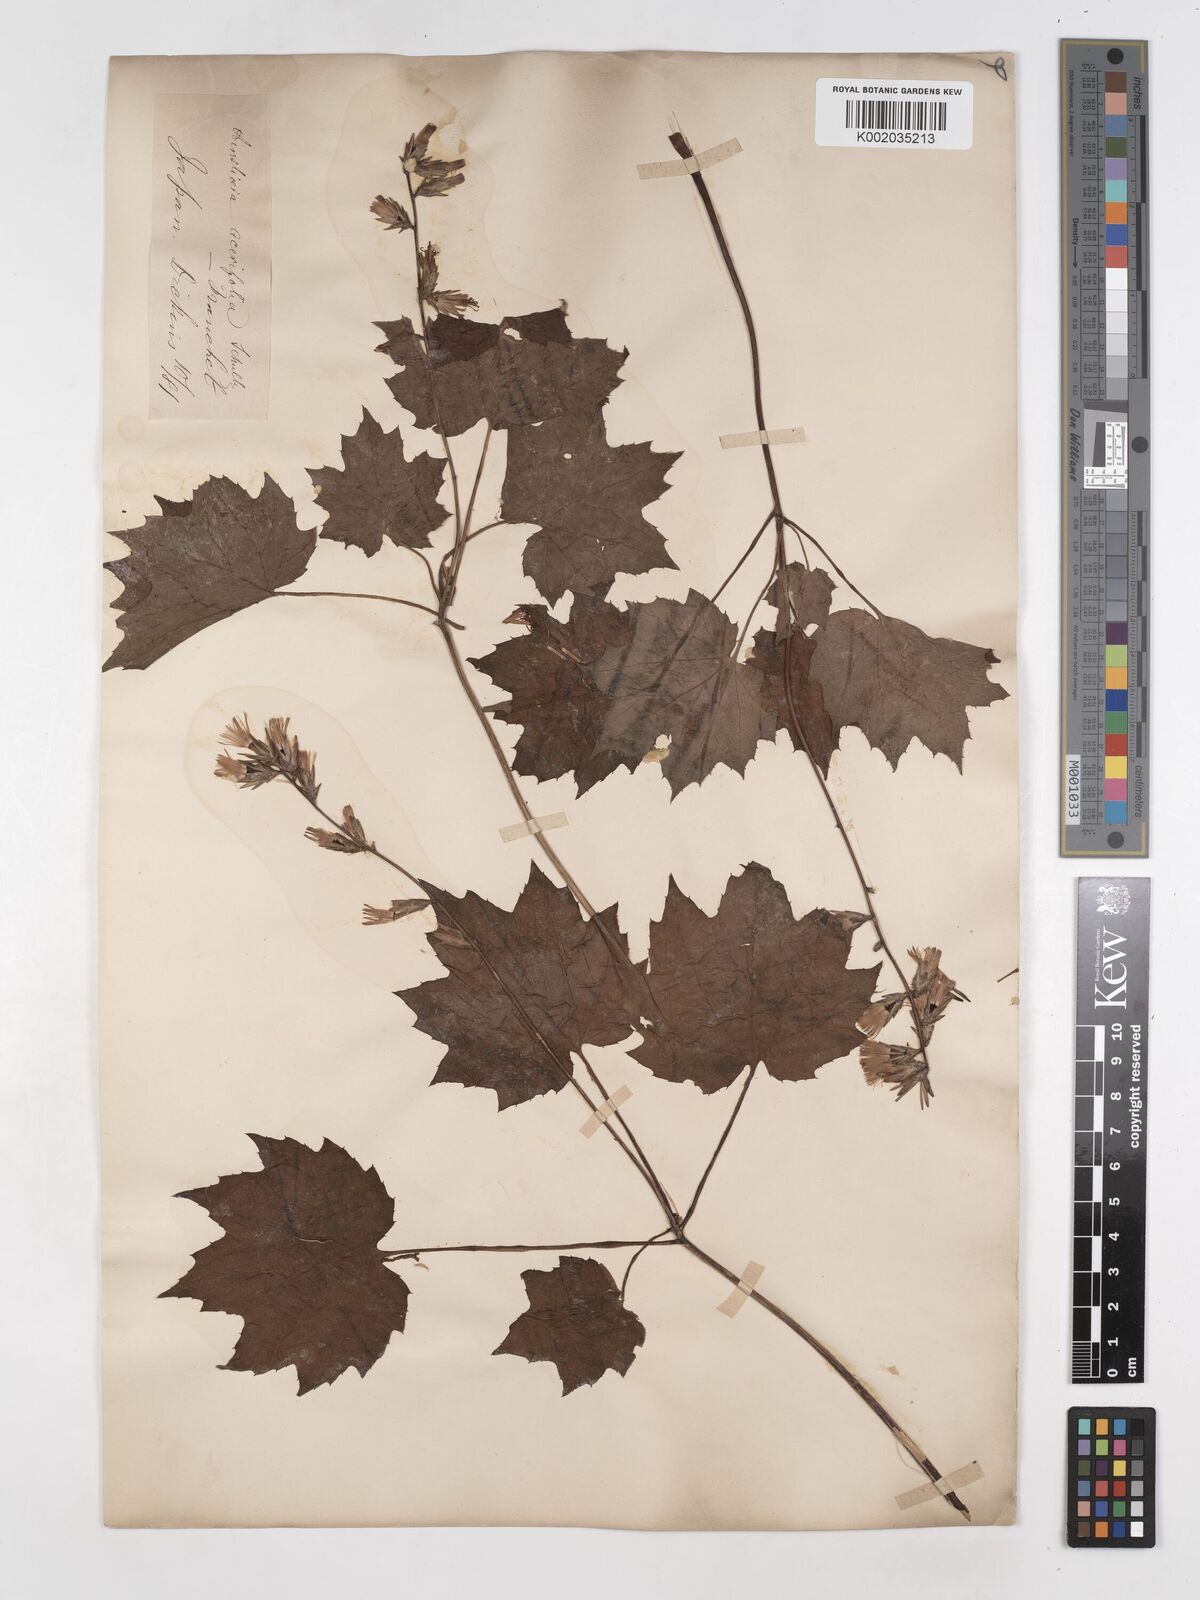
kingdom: Plantae
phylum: Tracheophyta
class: Magnoliopsida
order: Asterales
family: Asteraceae
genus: Ainsliaea
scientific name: Ainsliaea acerifolia
